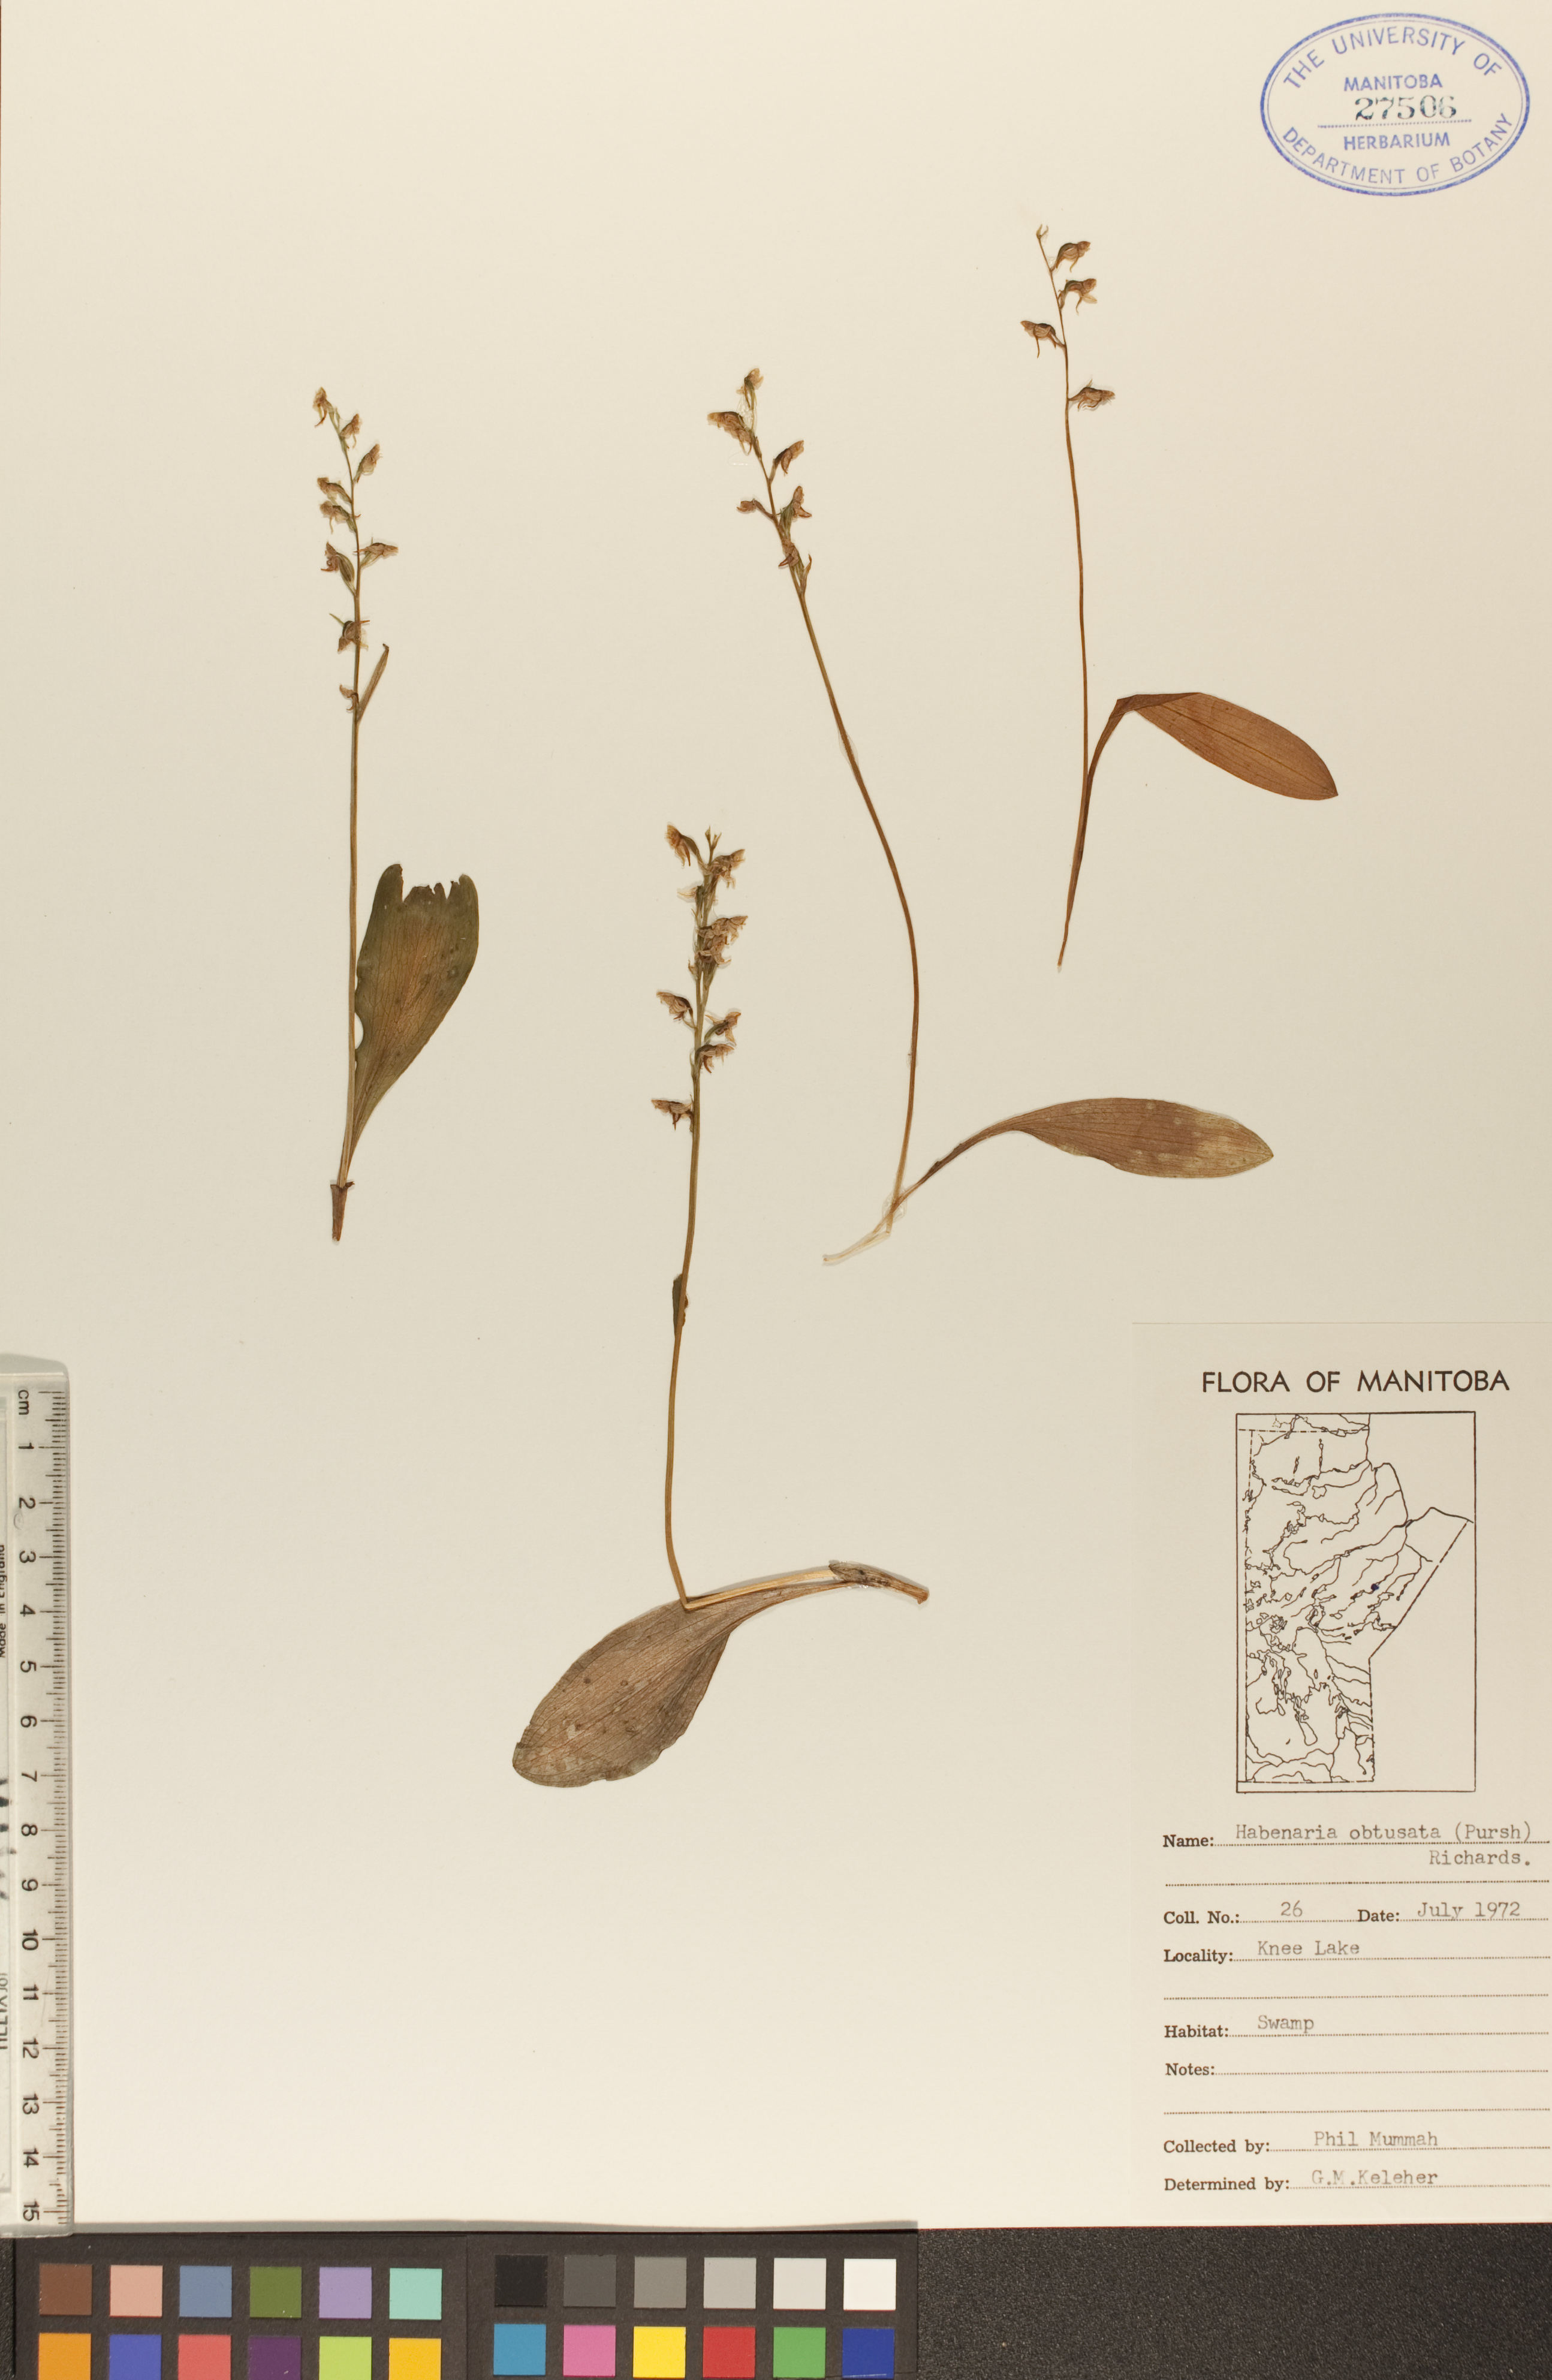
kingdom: Plantae
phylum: Tracheophyta
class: Liliopsida
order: Asparagales
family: Orchidaceae
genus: Platanthera
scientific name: Platanthera obtusata
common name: Blunt bog orchid
